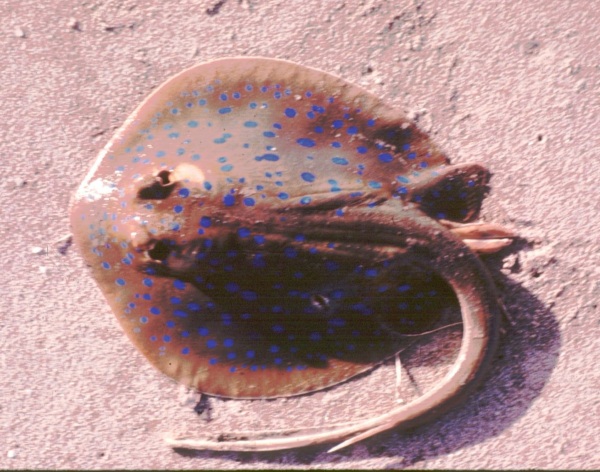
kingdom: Animalia
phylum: Chordata
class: Elasmobranchii
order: Myliobatiformes
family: Dasyatidae
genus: Taeniura
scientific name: Taeniura lymma
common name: Bluespotted ribbontail ray
